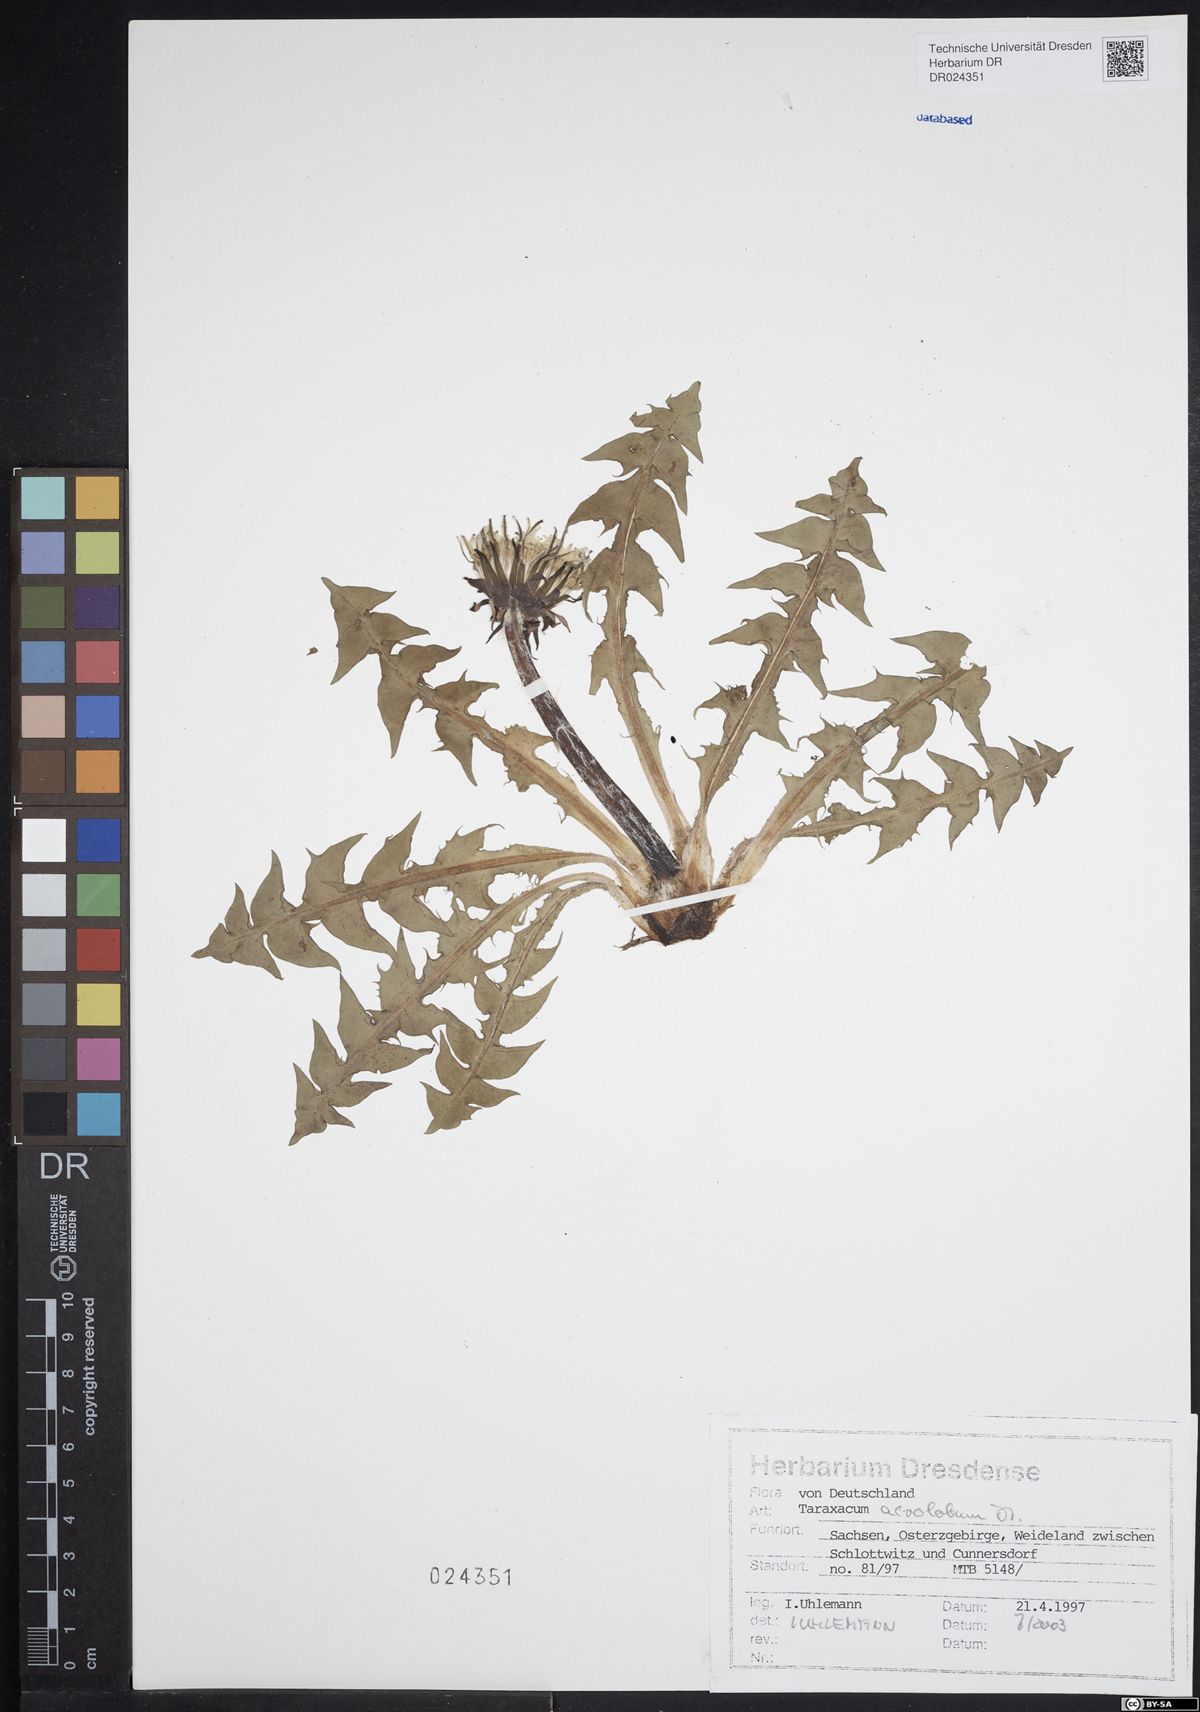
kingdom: Plantae
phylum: Tracheophyta
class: Magnoliopsida
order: Asterales
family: Asteraceae
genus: Taraxacum
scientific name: Taraxacum acrolobum
